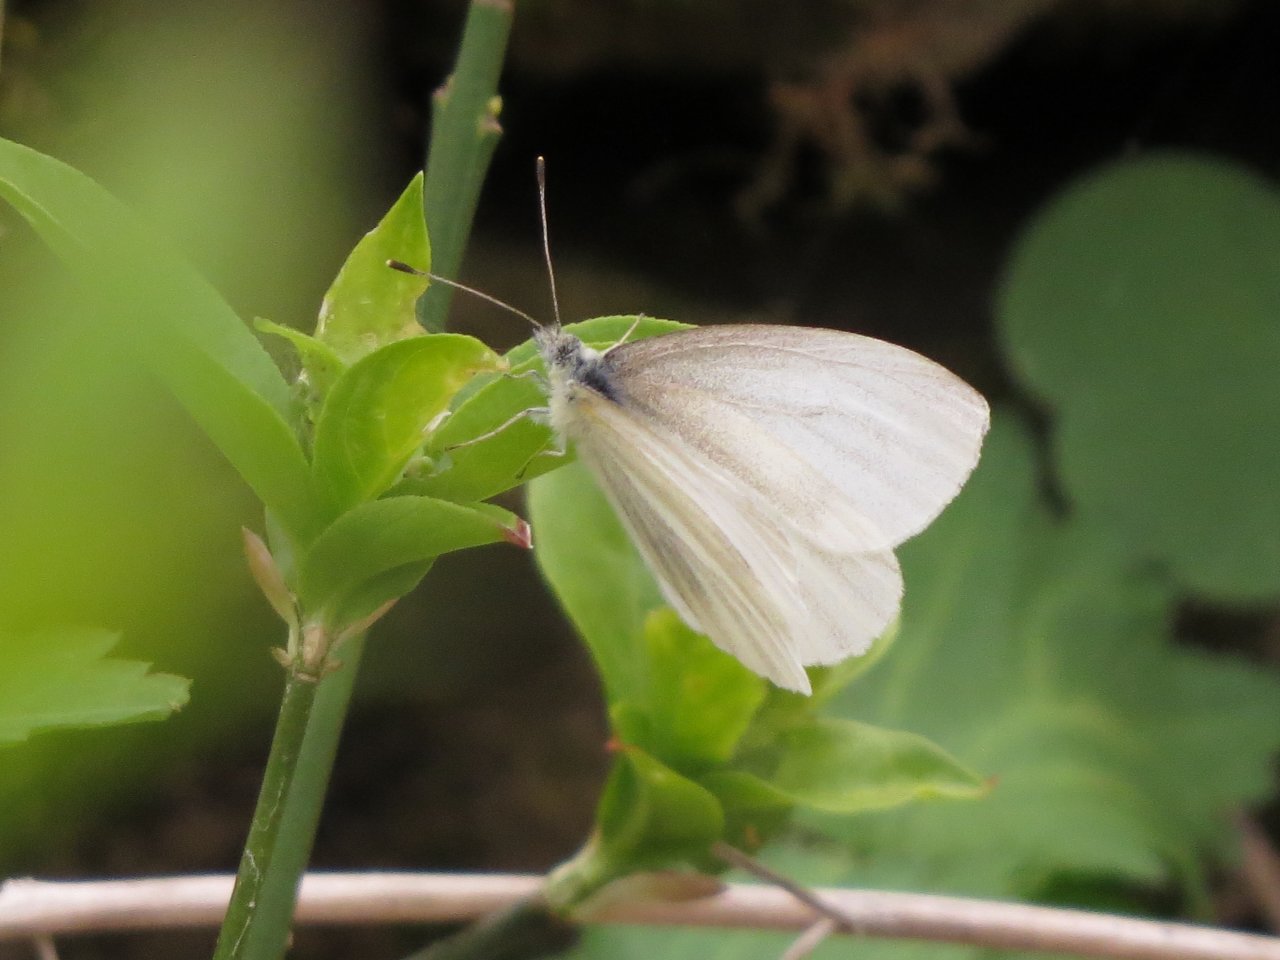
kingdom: Animalia
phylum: Arthropoda
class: Insecta
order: Lepidoptera
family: Pieridae
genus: Pieris
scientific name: Pieris virginiensis
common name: West Virginia White
